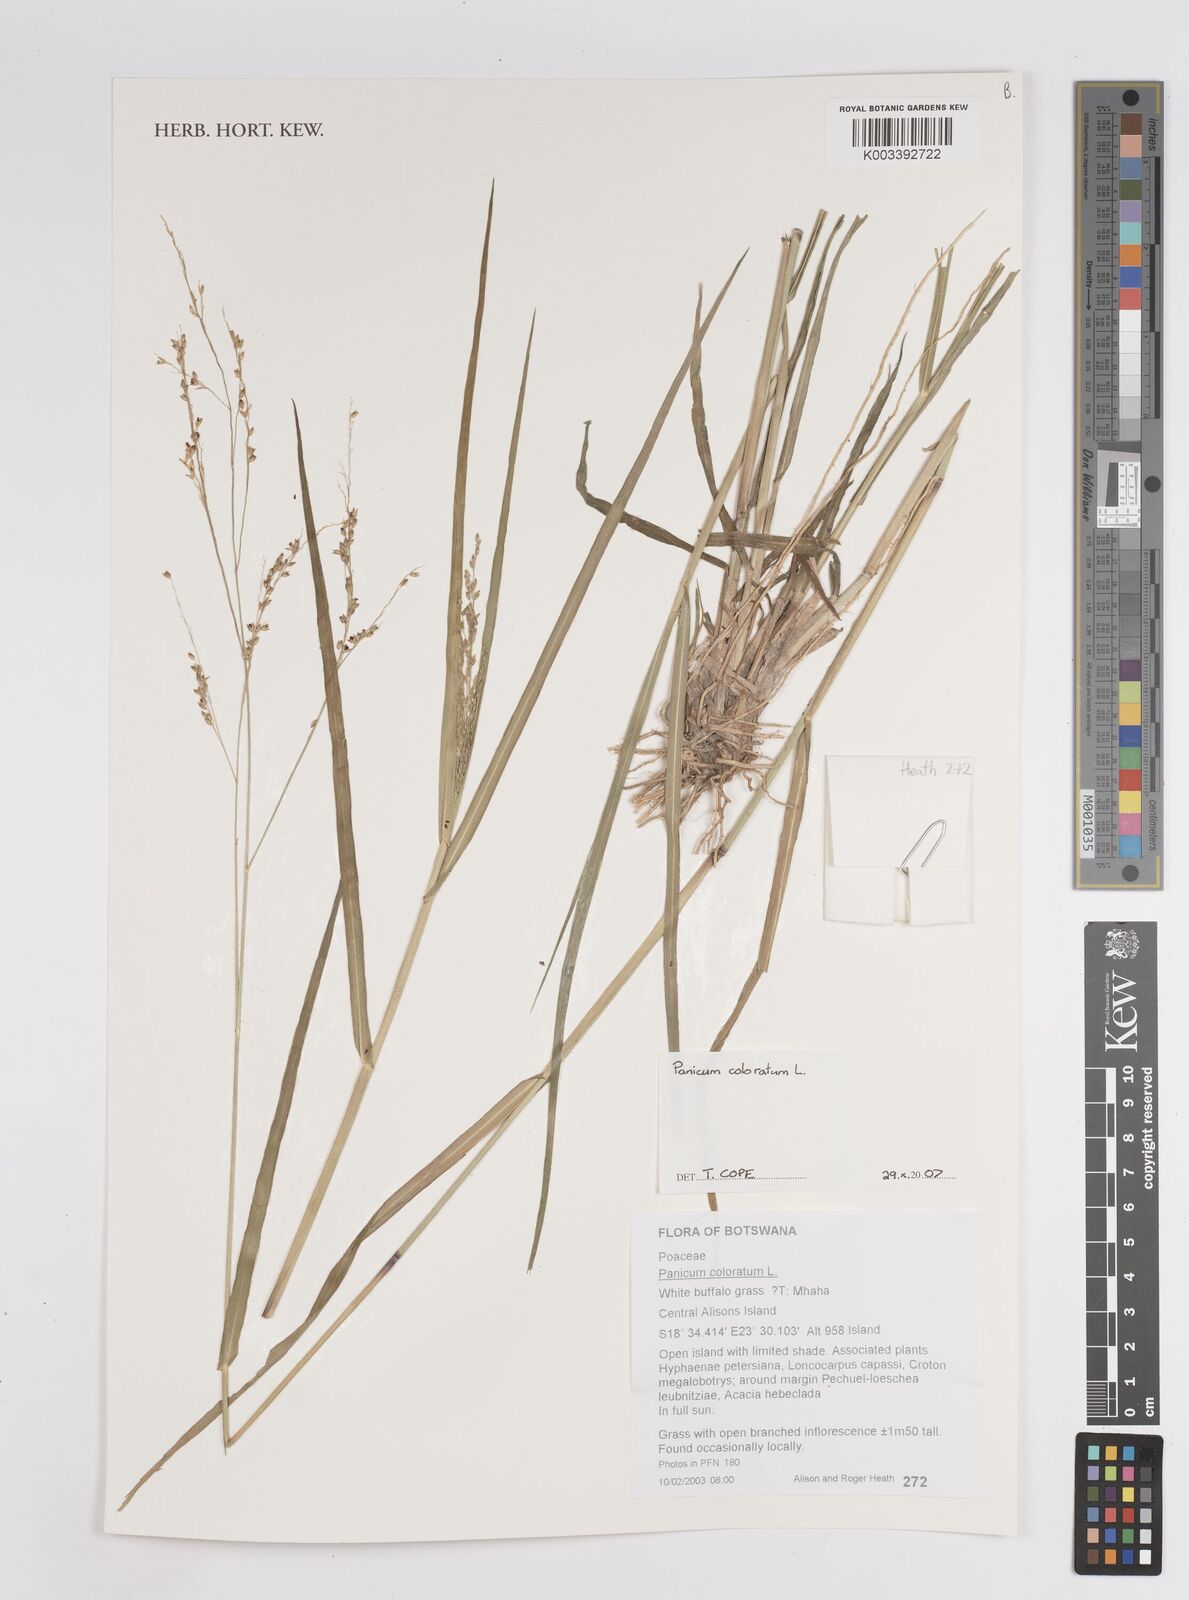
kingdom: Plantae
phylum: Tracheophyta
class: Liliopsida
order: Poales
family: Poaceae
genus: Panicum
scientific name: Panicum coloratum
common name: Kleingrass
